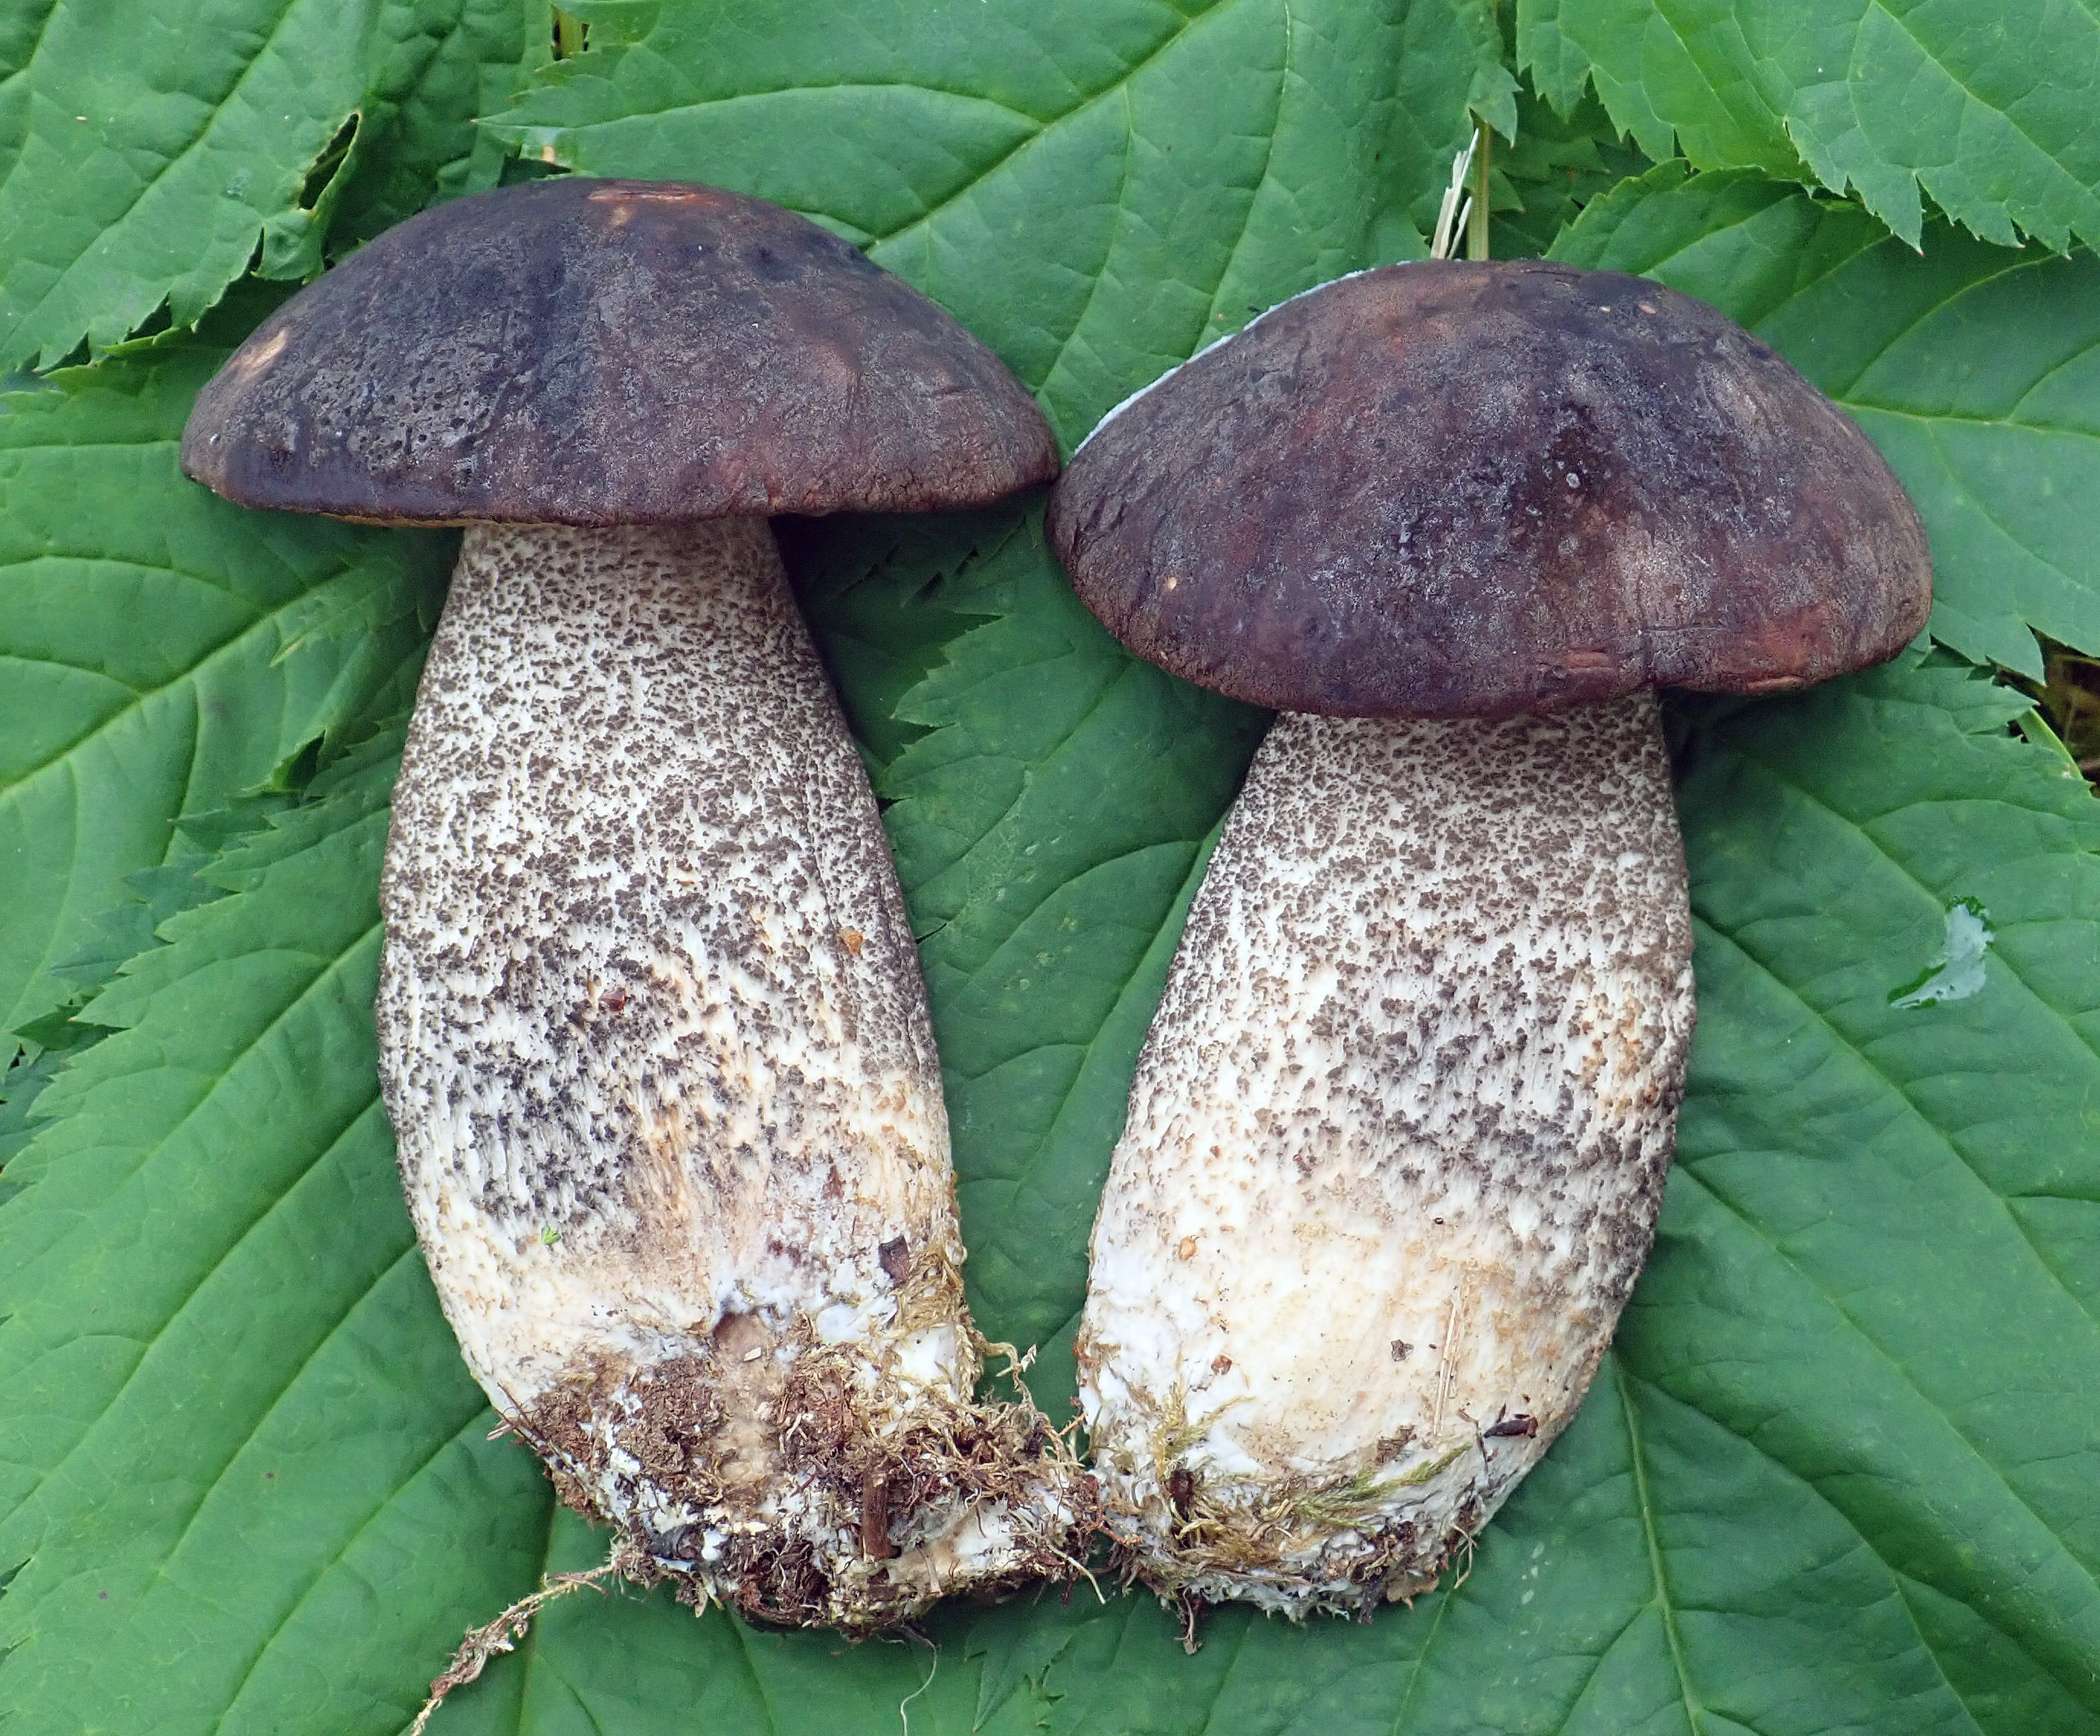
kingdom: Fungi
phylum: Basidiomycota
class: Agaricomycetes
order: Boletales
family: Boletaceae
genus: Leccinum
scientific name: Leccinum variicolor
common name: Mottled bolete
